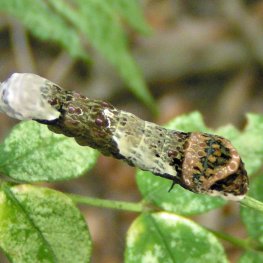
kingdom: Animalia
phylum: Arthropoda
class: Insecta
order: Lepidoptera
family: Papilionidae
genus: Papilio
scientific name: Papilio cresphontes
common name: Eastern Giant Swallowtail
